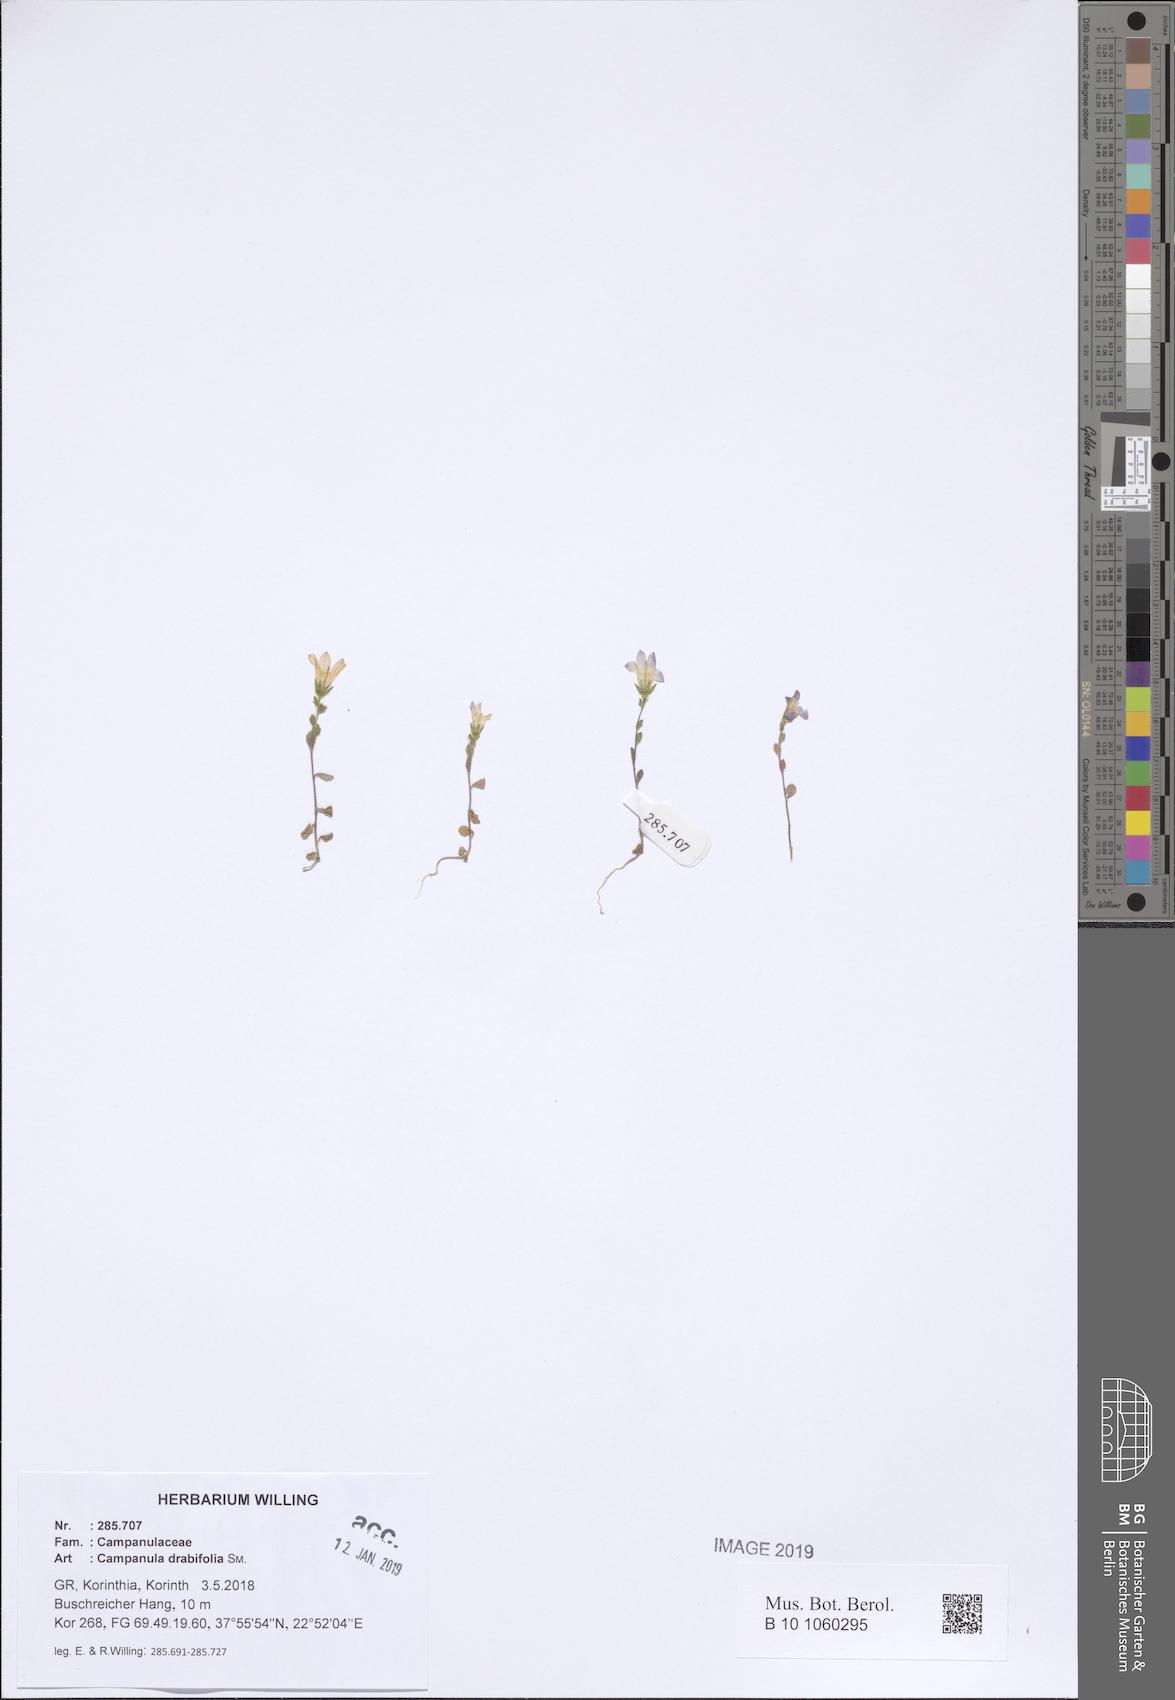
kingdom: Plantae
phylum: Tracheophyta
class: Magnoliopsida
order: Asterales
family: Campanulaceae
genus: Campanula
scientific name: Campanula drabifolia
